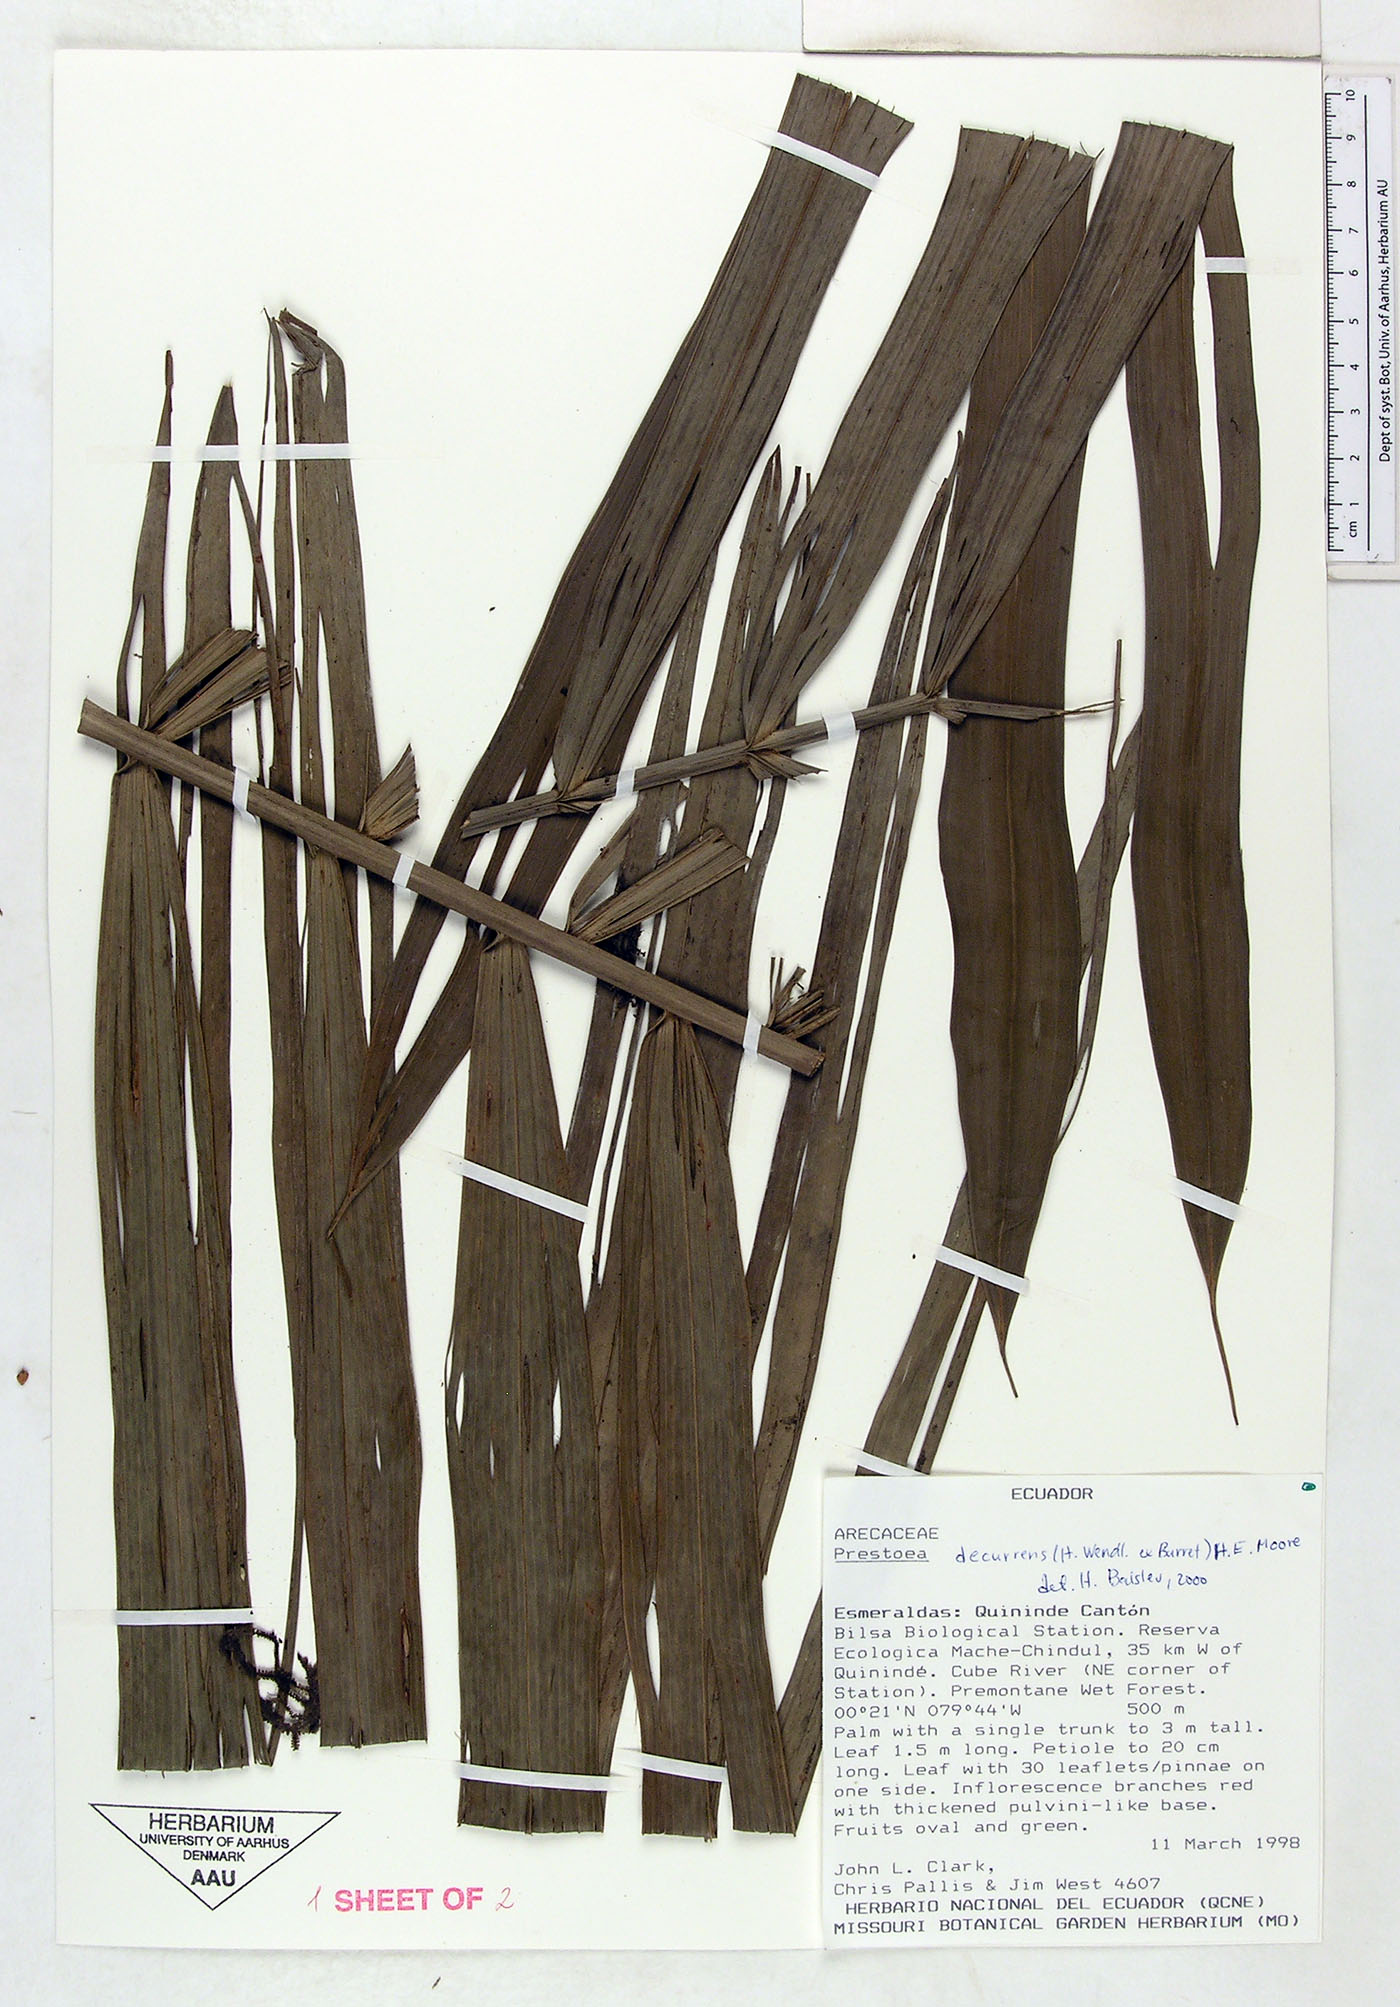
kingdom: Plantae
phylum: Tracheophyta
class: Liliopsida
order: Arecales
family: Arecaceae
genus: Prestoea
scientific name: Prestoea decurrens
